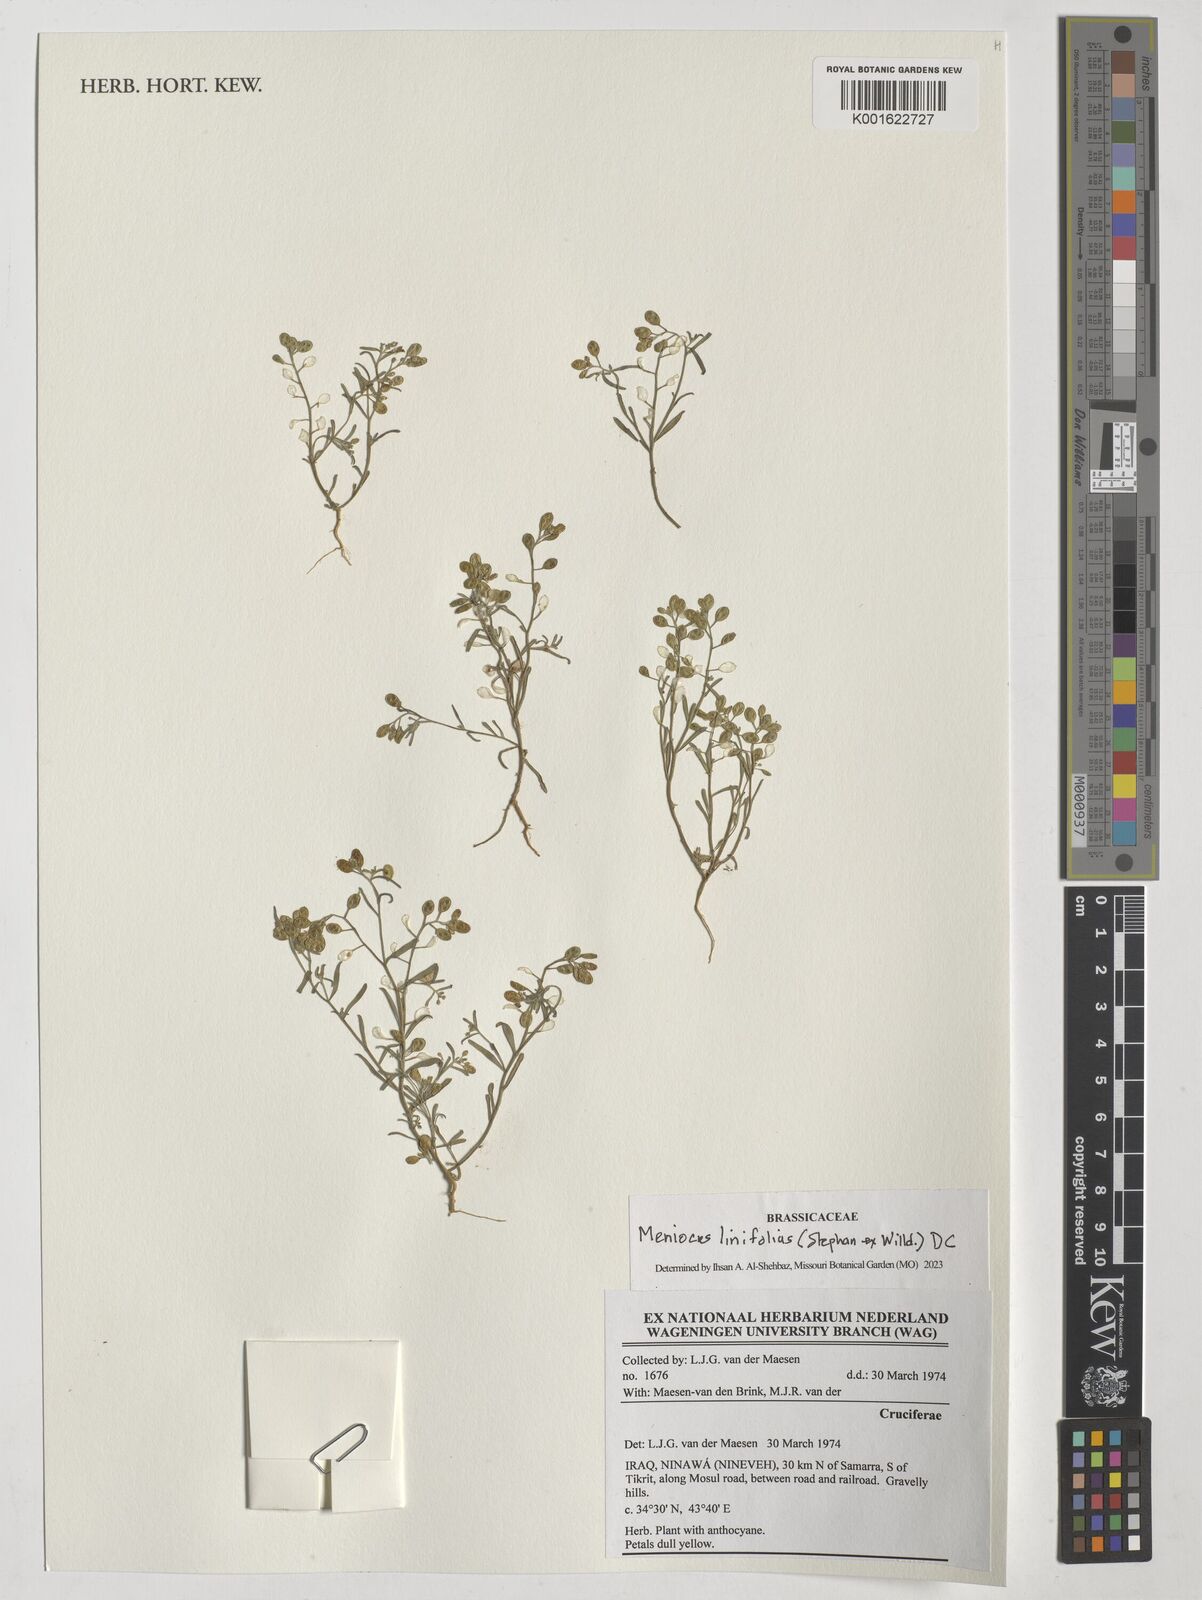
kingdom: Plantae
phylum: Tracheophyta
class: Magnoliopsida
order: Brassicales
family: Brassicaceae
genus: Meniocus
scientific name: Meniocus linifolius
